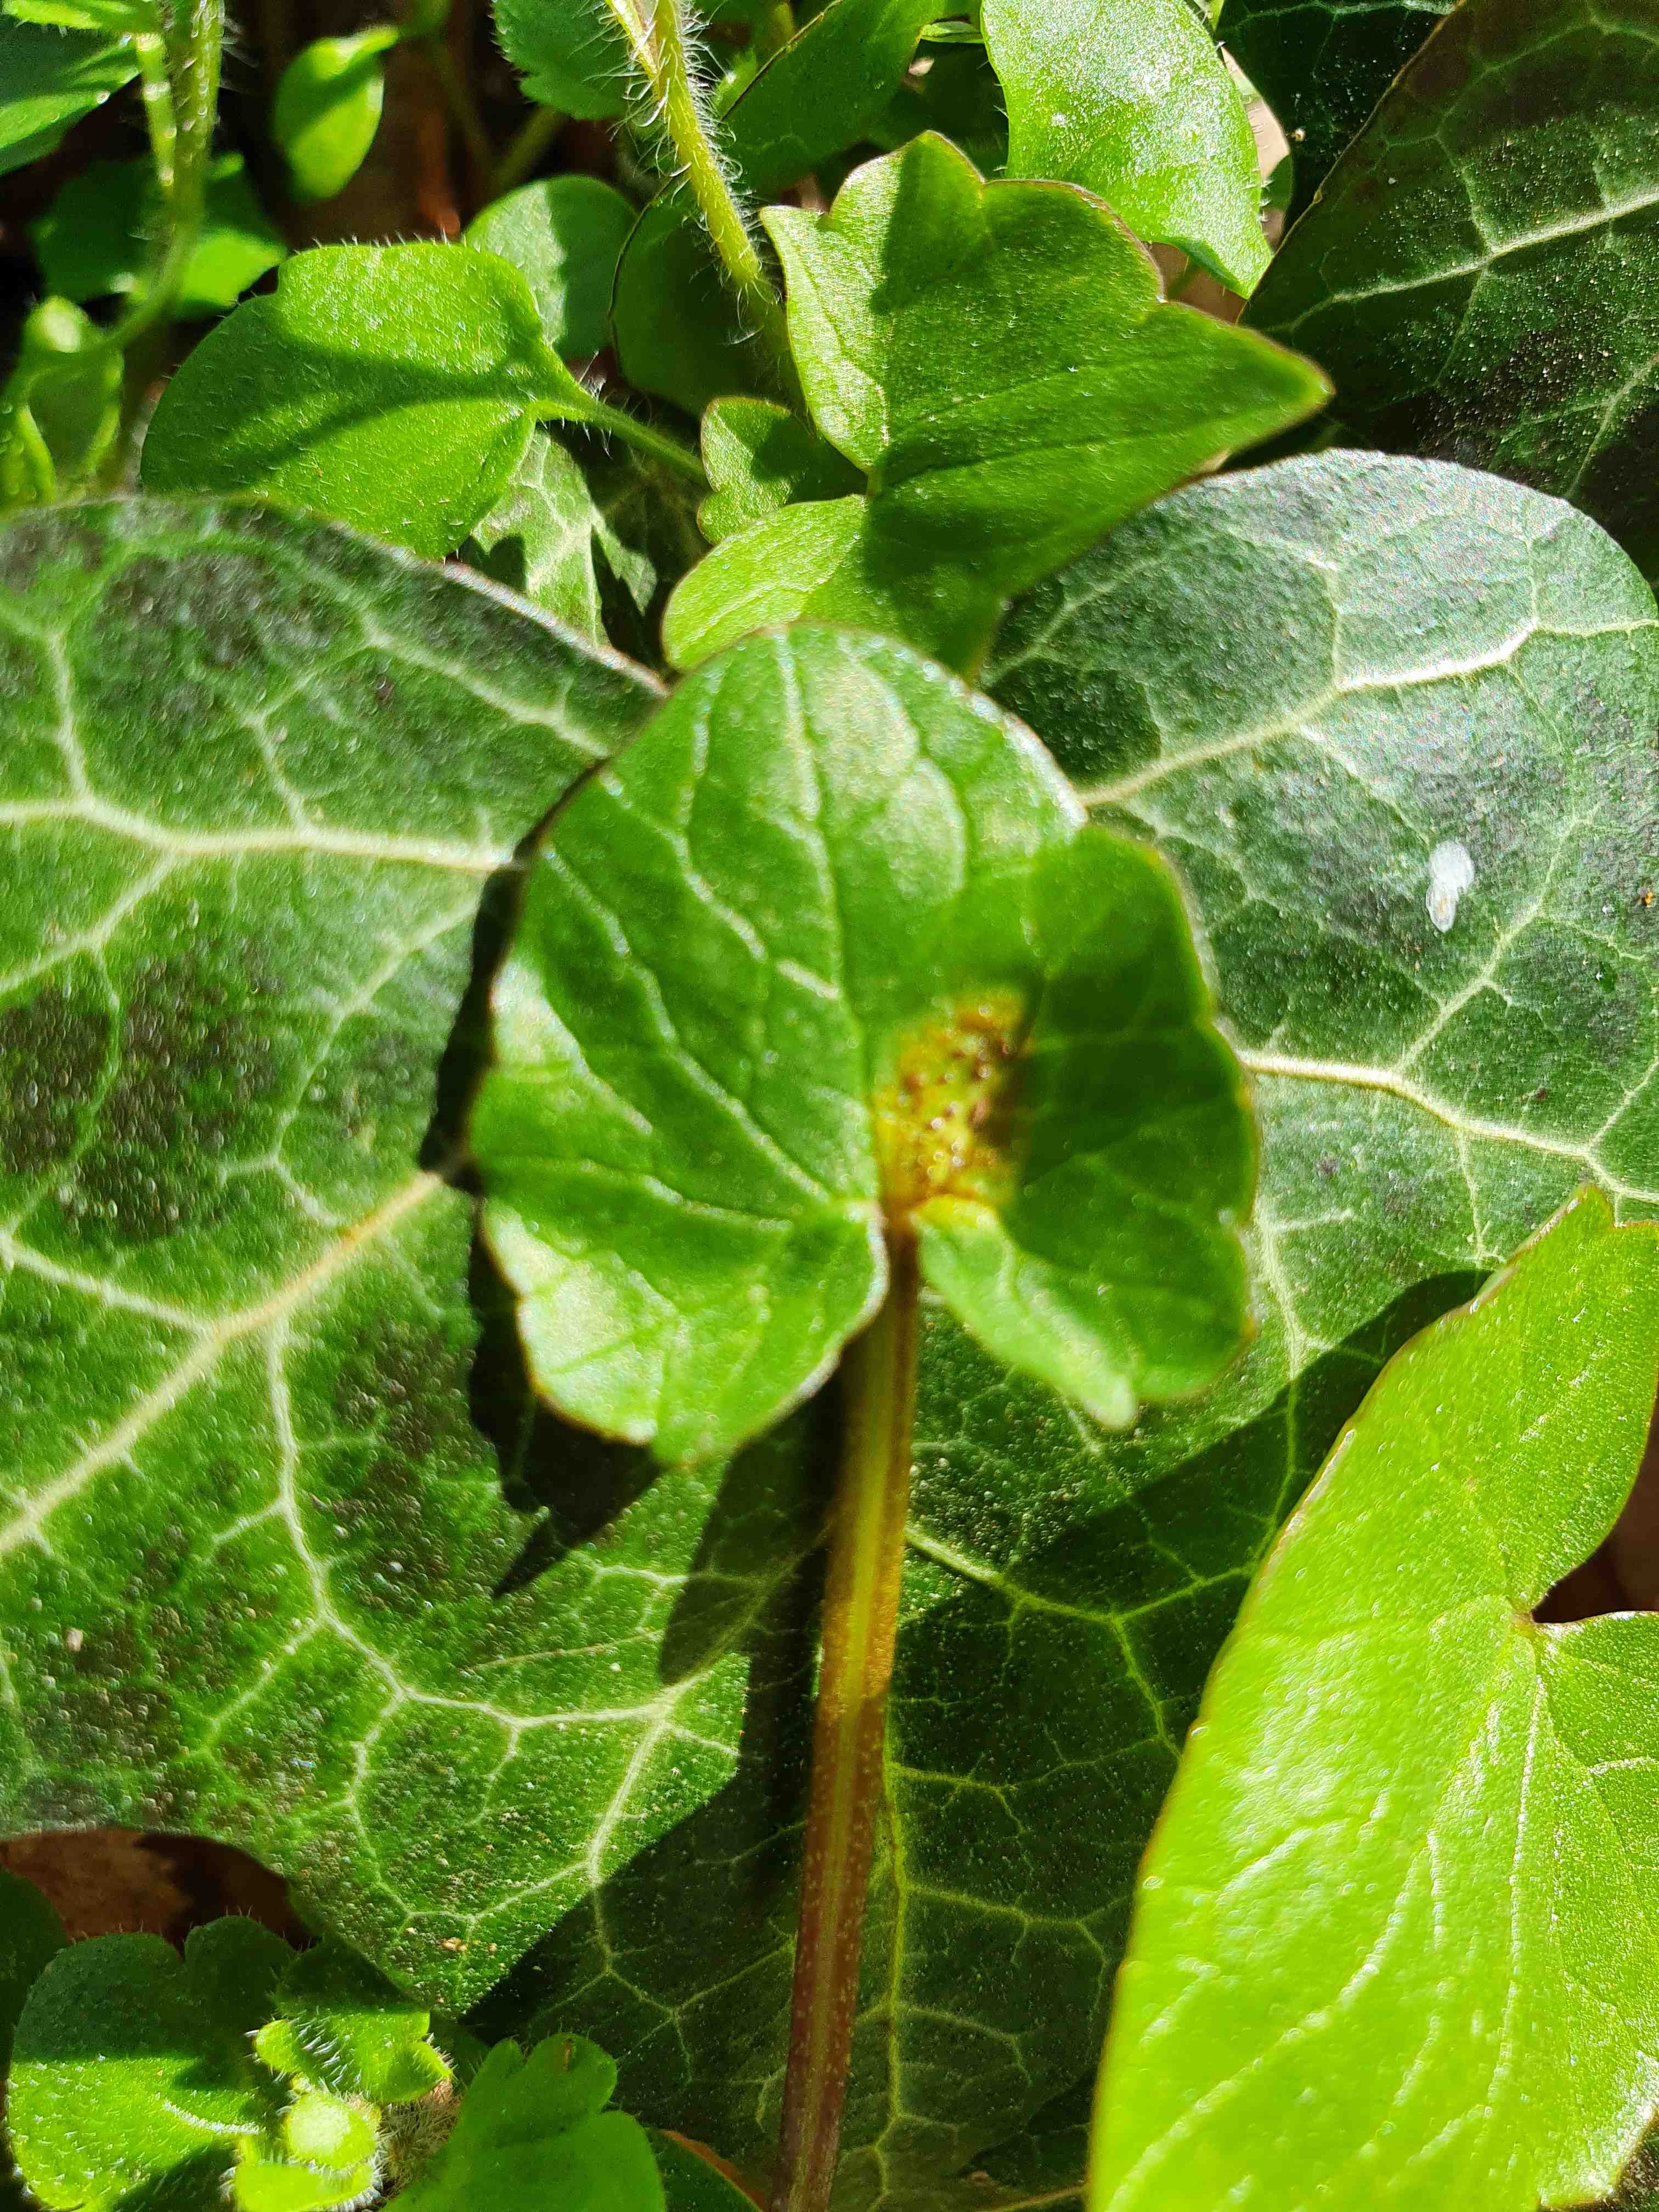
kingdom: Fungi
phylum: Basidiomycota
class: Pucciniomycetes
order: Pucciniales
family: Pucciniaceae
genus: Uromyces
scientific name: Uromyces ficariae
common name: vorterod-encellerust
